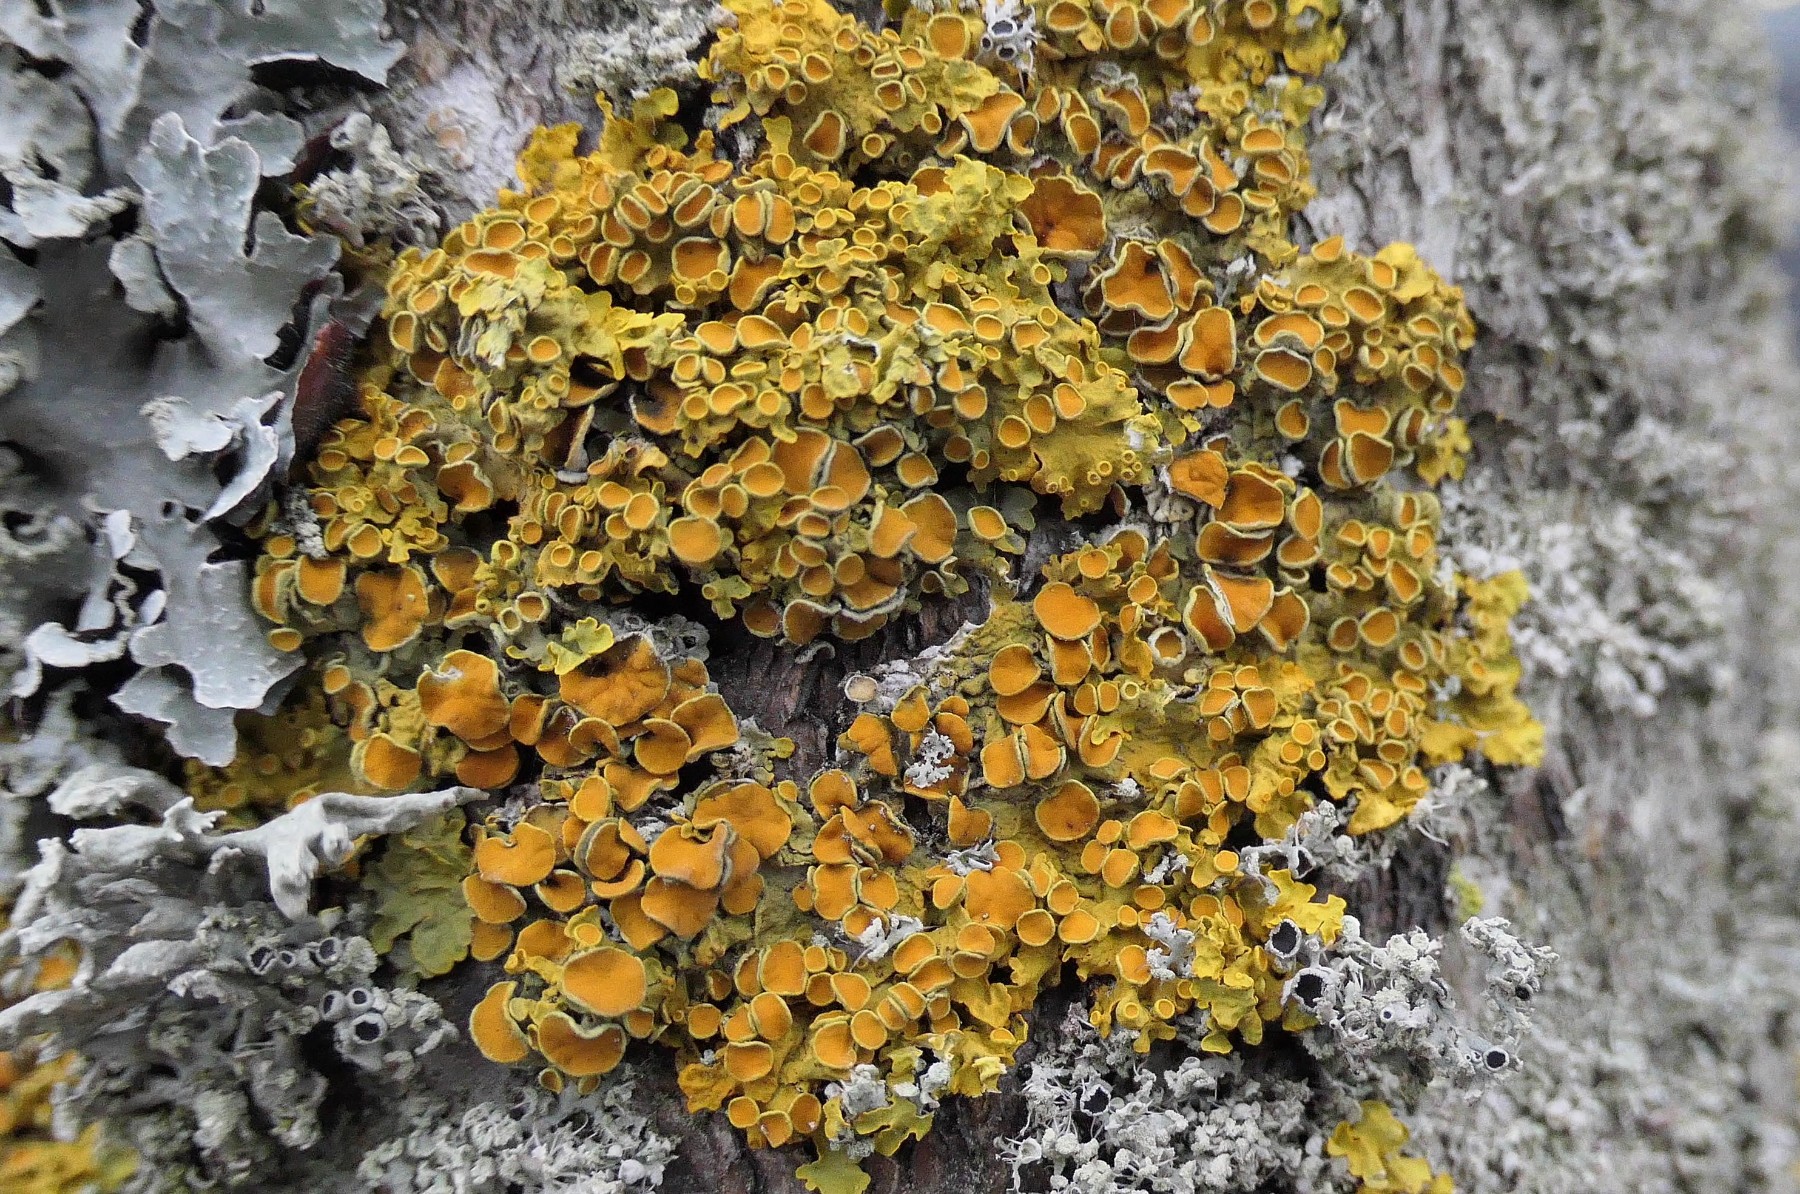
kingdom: Fungi
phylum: Ascomycota
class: Lecanoromycetes
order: Teloschistales
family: Teloschistaceae
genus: Xanthoria
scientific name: Xanthoria parietina
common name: almindelig væggelav
